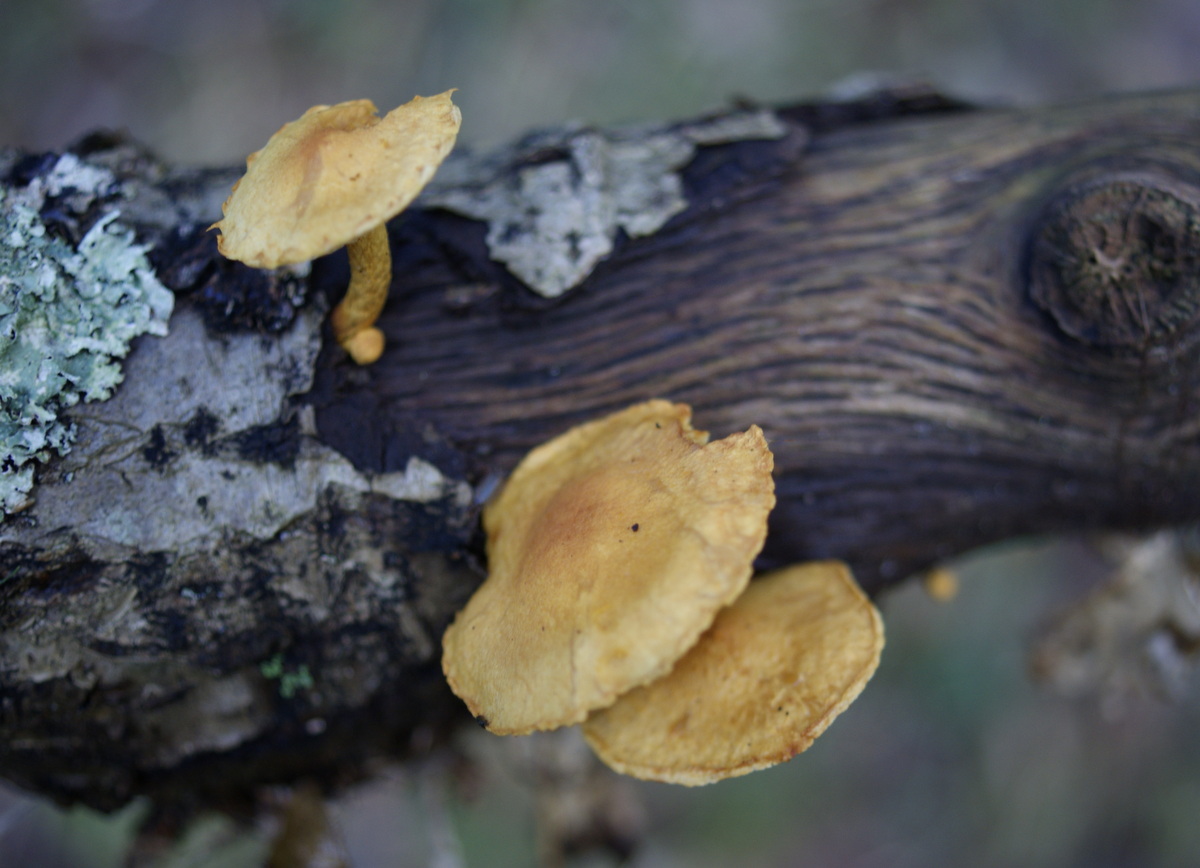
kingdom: Fungi
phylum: Basidiomycota
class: Agaricomycetes
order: Agaricales
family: Strophariaceae
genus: Pholiota
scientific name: Pholiota tuberculosa
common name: finskællet skælhat
